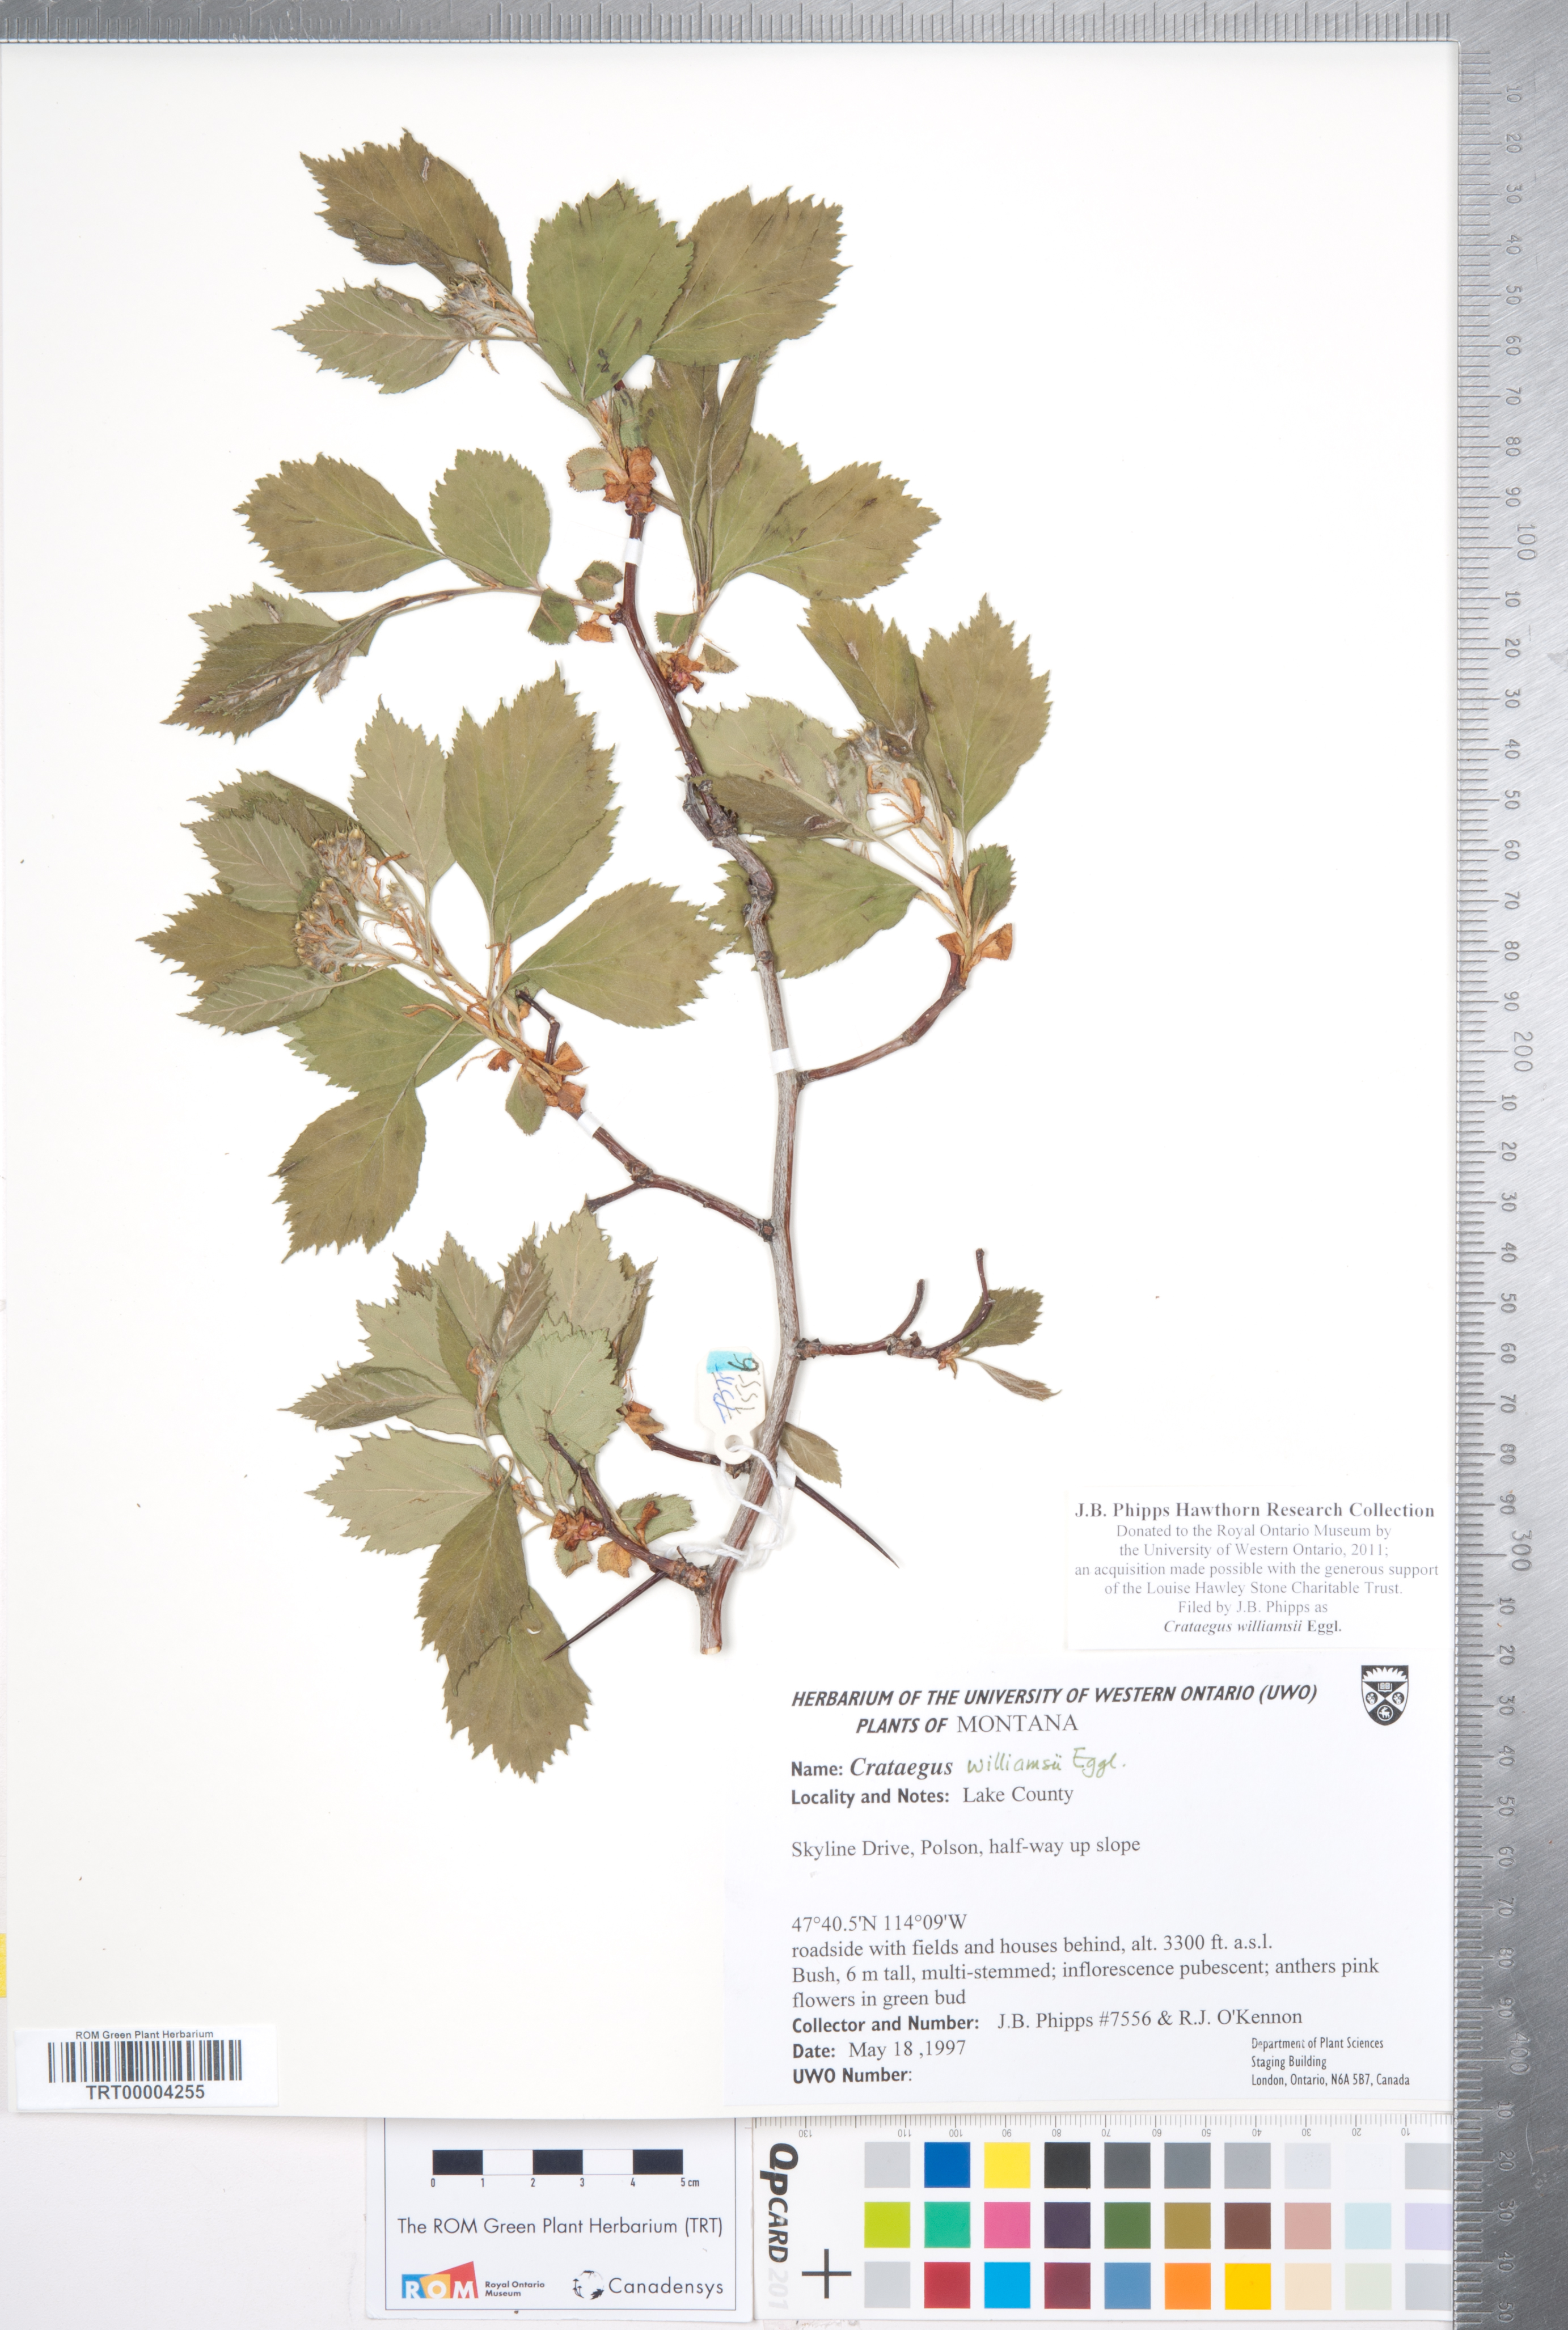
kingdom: Plantae
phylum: Tracheophyta
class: Magnoliopsida
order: Rosales
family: Rosaceae
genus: Crataegus
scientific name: Crataegus williamsii
